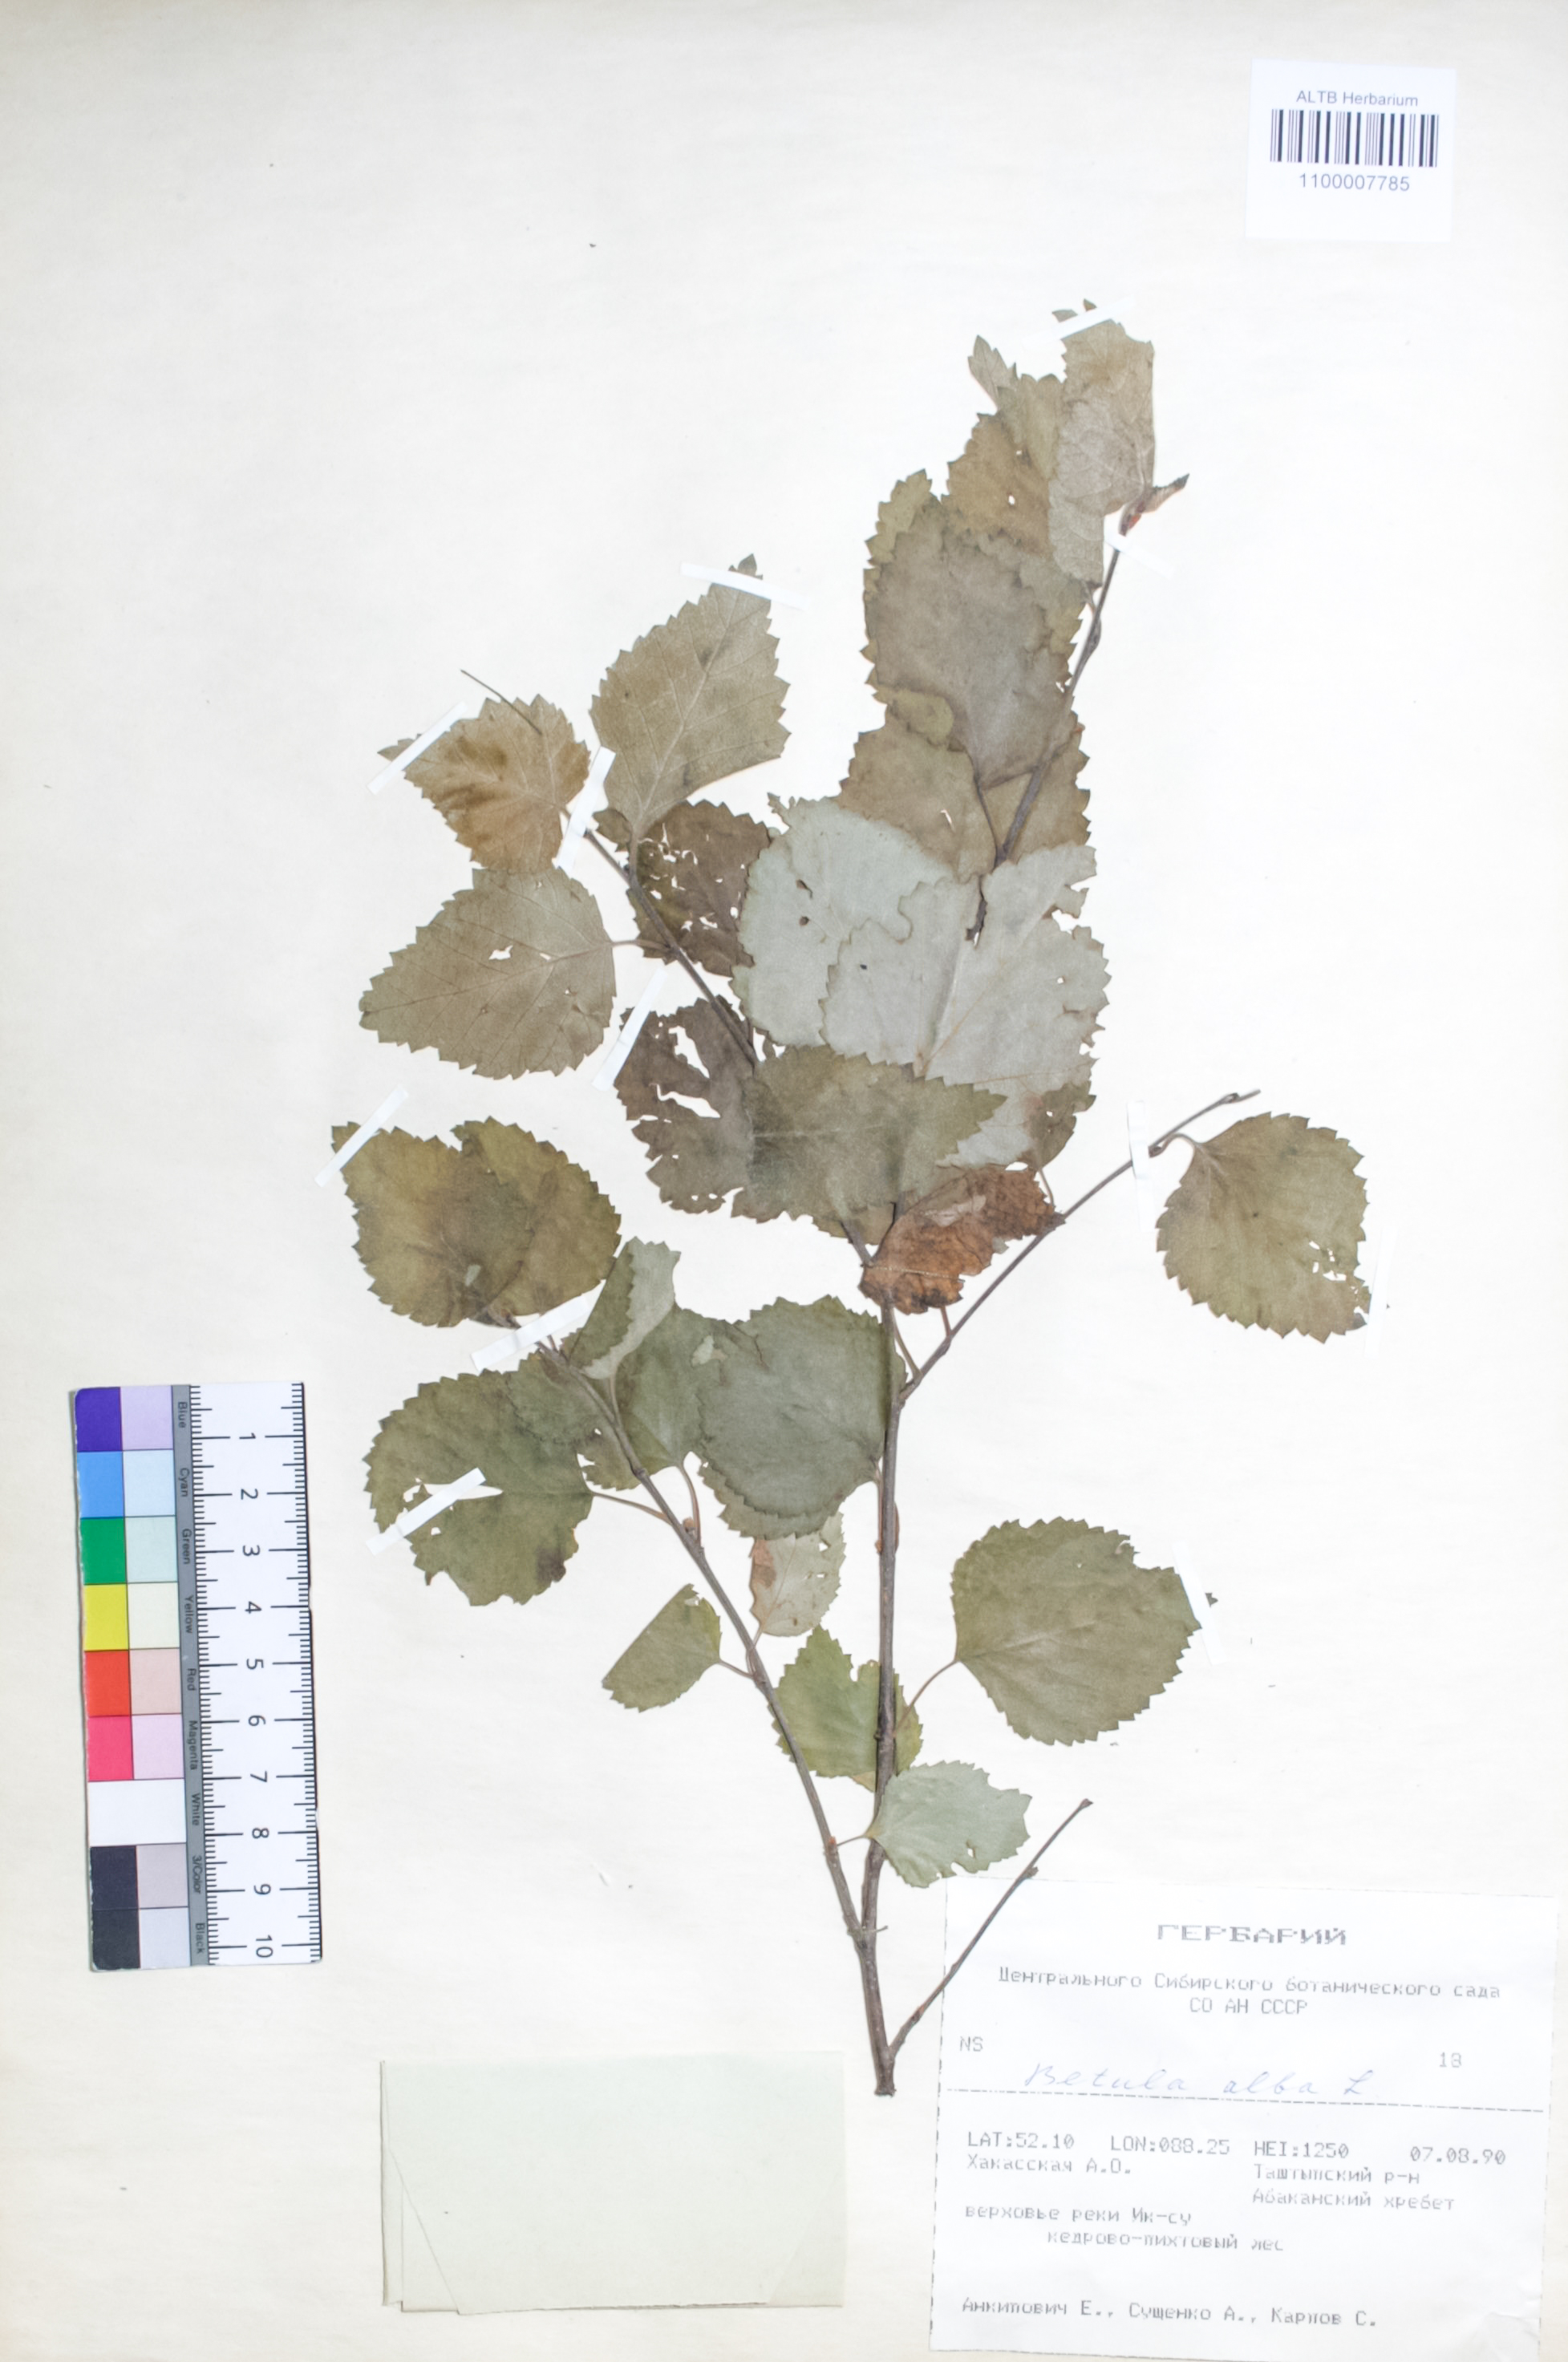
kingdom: Plantae
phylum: Tracheophyta
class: Magnoliopsida
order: Fagales
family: Betulaceae
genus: Betula
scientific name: Betula pubescens
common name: Downy birch
